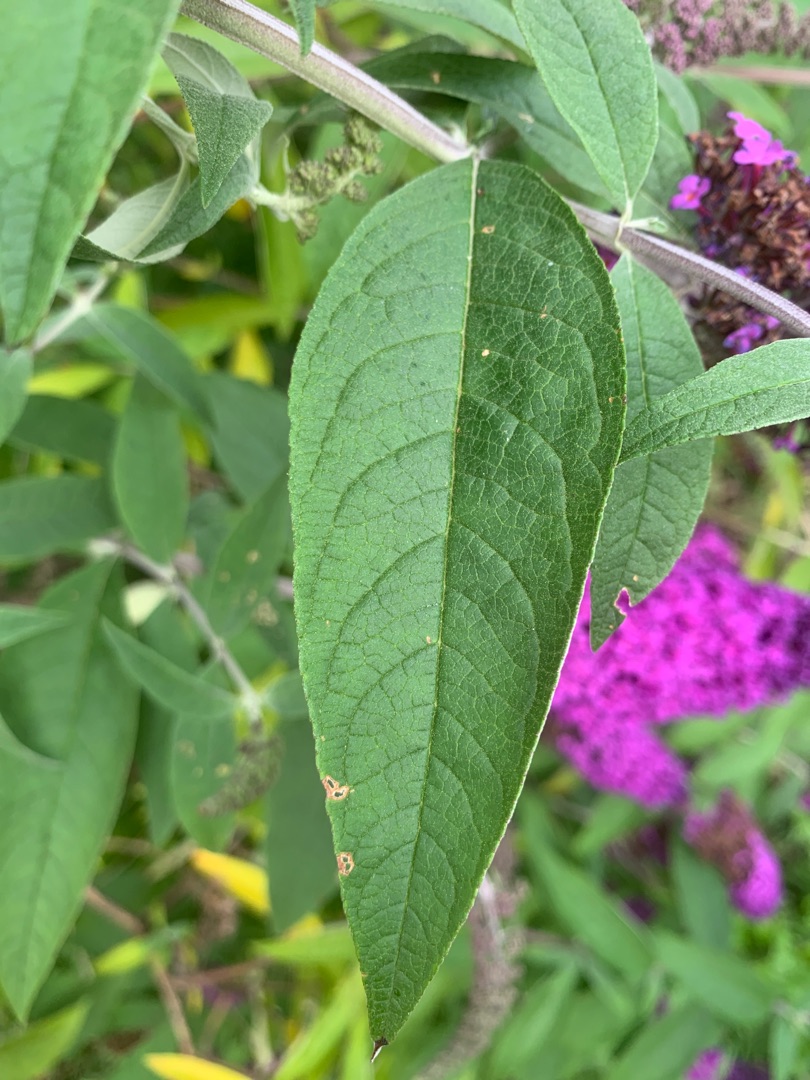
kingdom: Plantae
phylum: Tracheophyta
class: Magnoliopsida
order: Lamiales
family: Scrophulariaceae
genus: Buddleja
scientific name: Buddleja davidii
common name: Sommerfuglebusk
